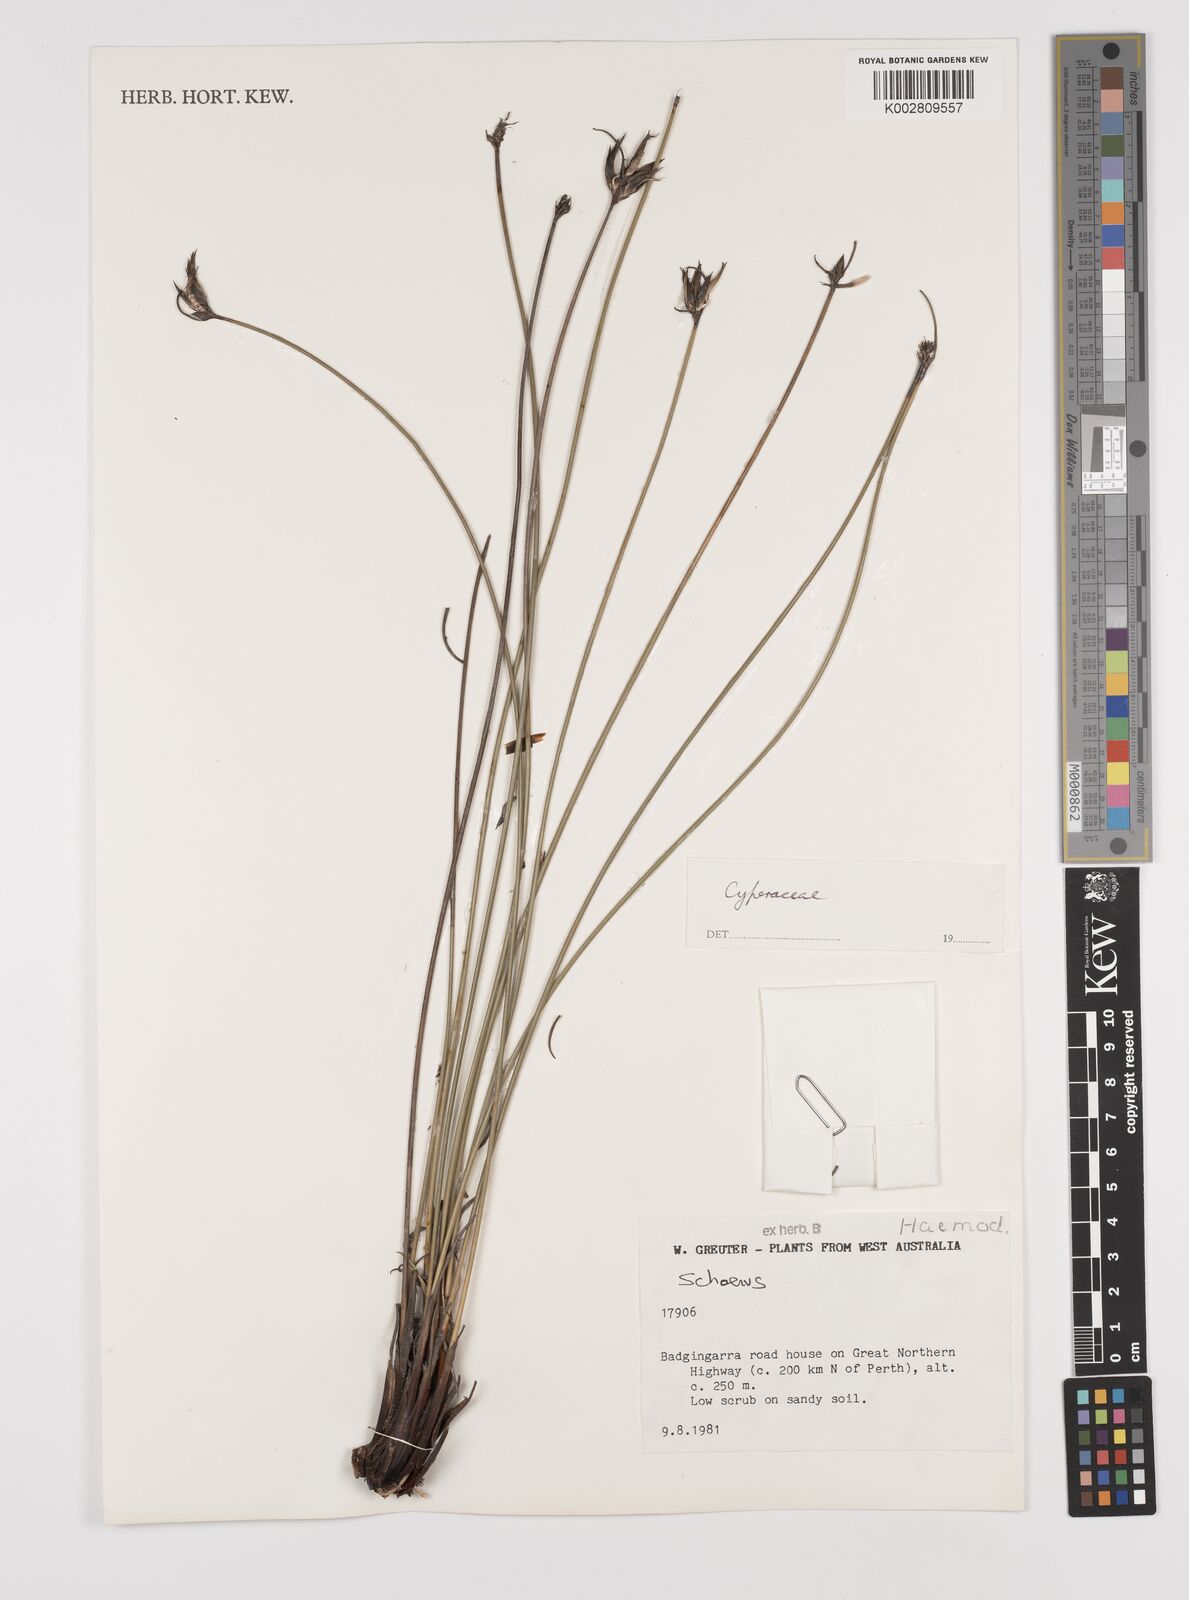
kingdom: Plantae
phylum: Tracheophyta
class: Liliopsida
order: Poales
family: Cyperaceae
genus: Schoenus
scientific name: Schoenus
